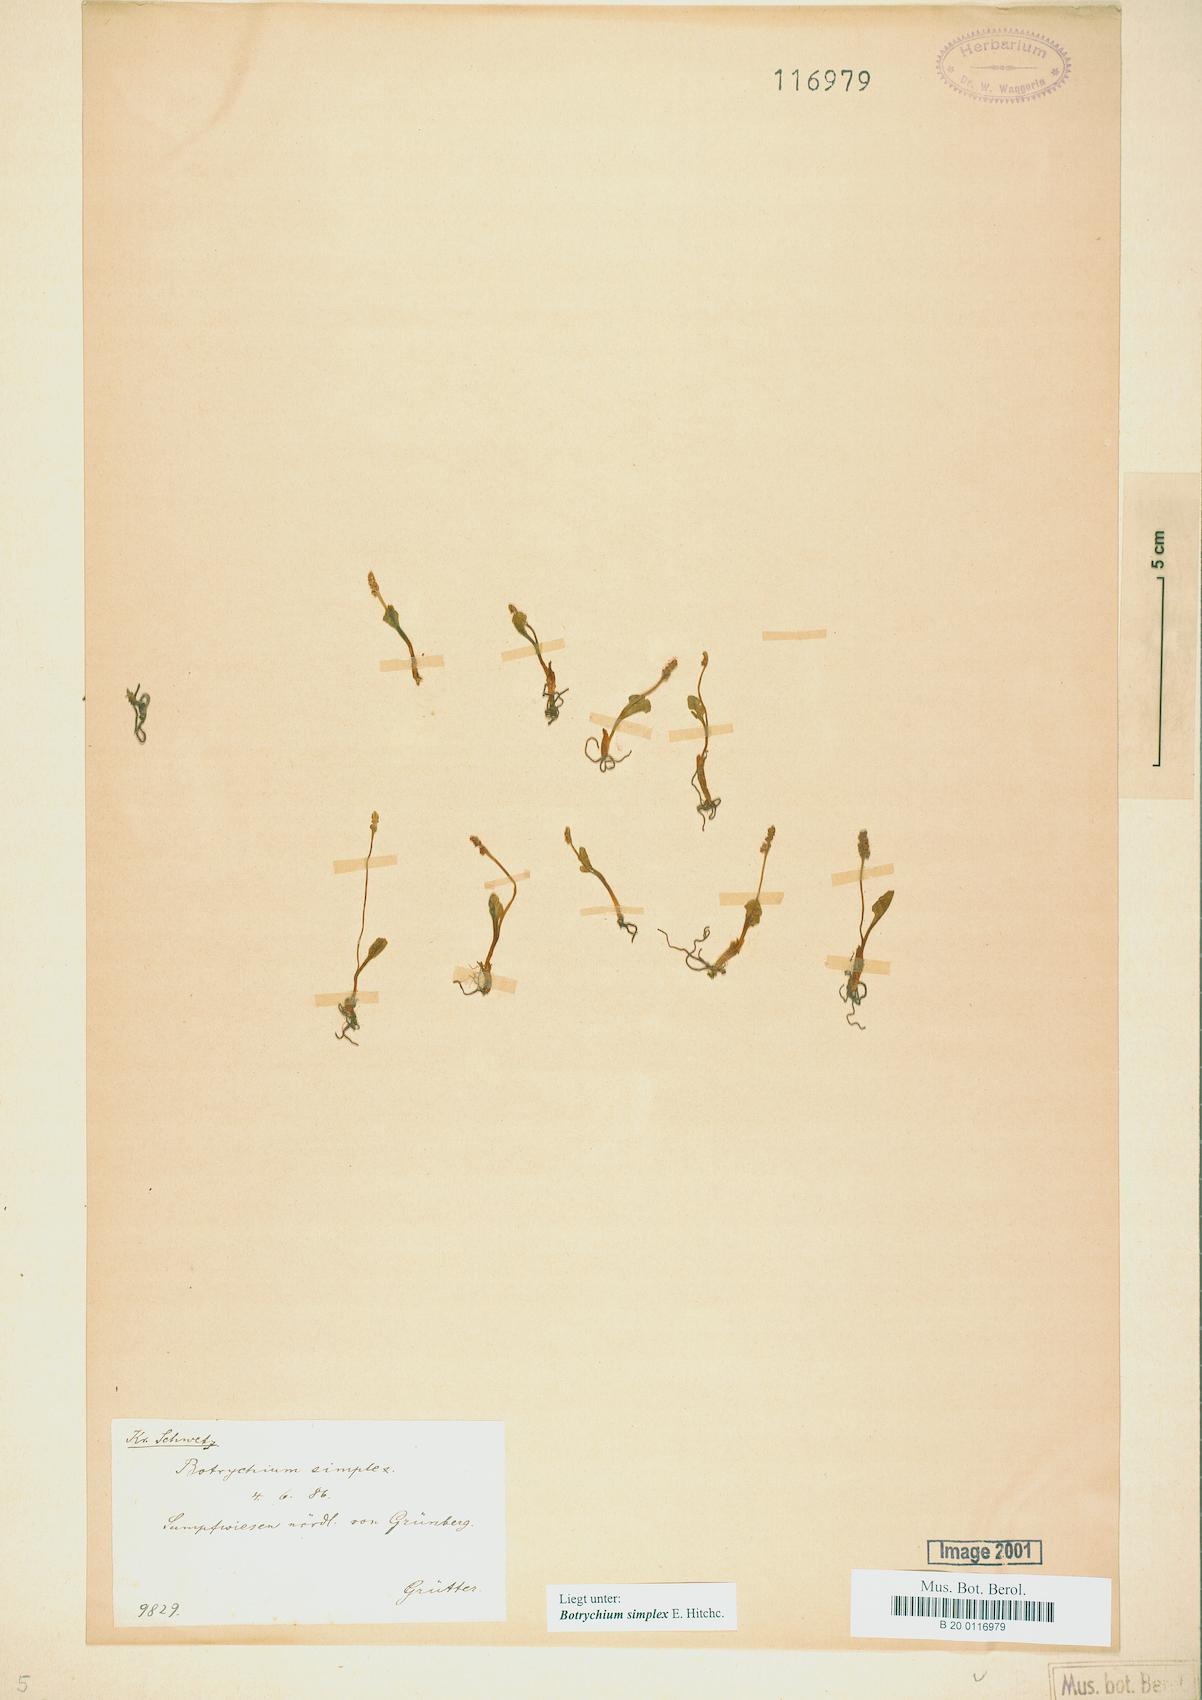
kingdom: Plantae
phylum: Tracheophyta
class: Polypodiopsida
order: Ophioglossales
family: Ophioglossaceae
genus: Botrychium
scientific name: Botrychium simplex
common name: Least moonwort
